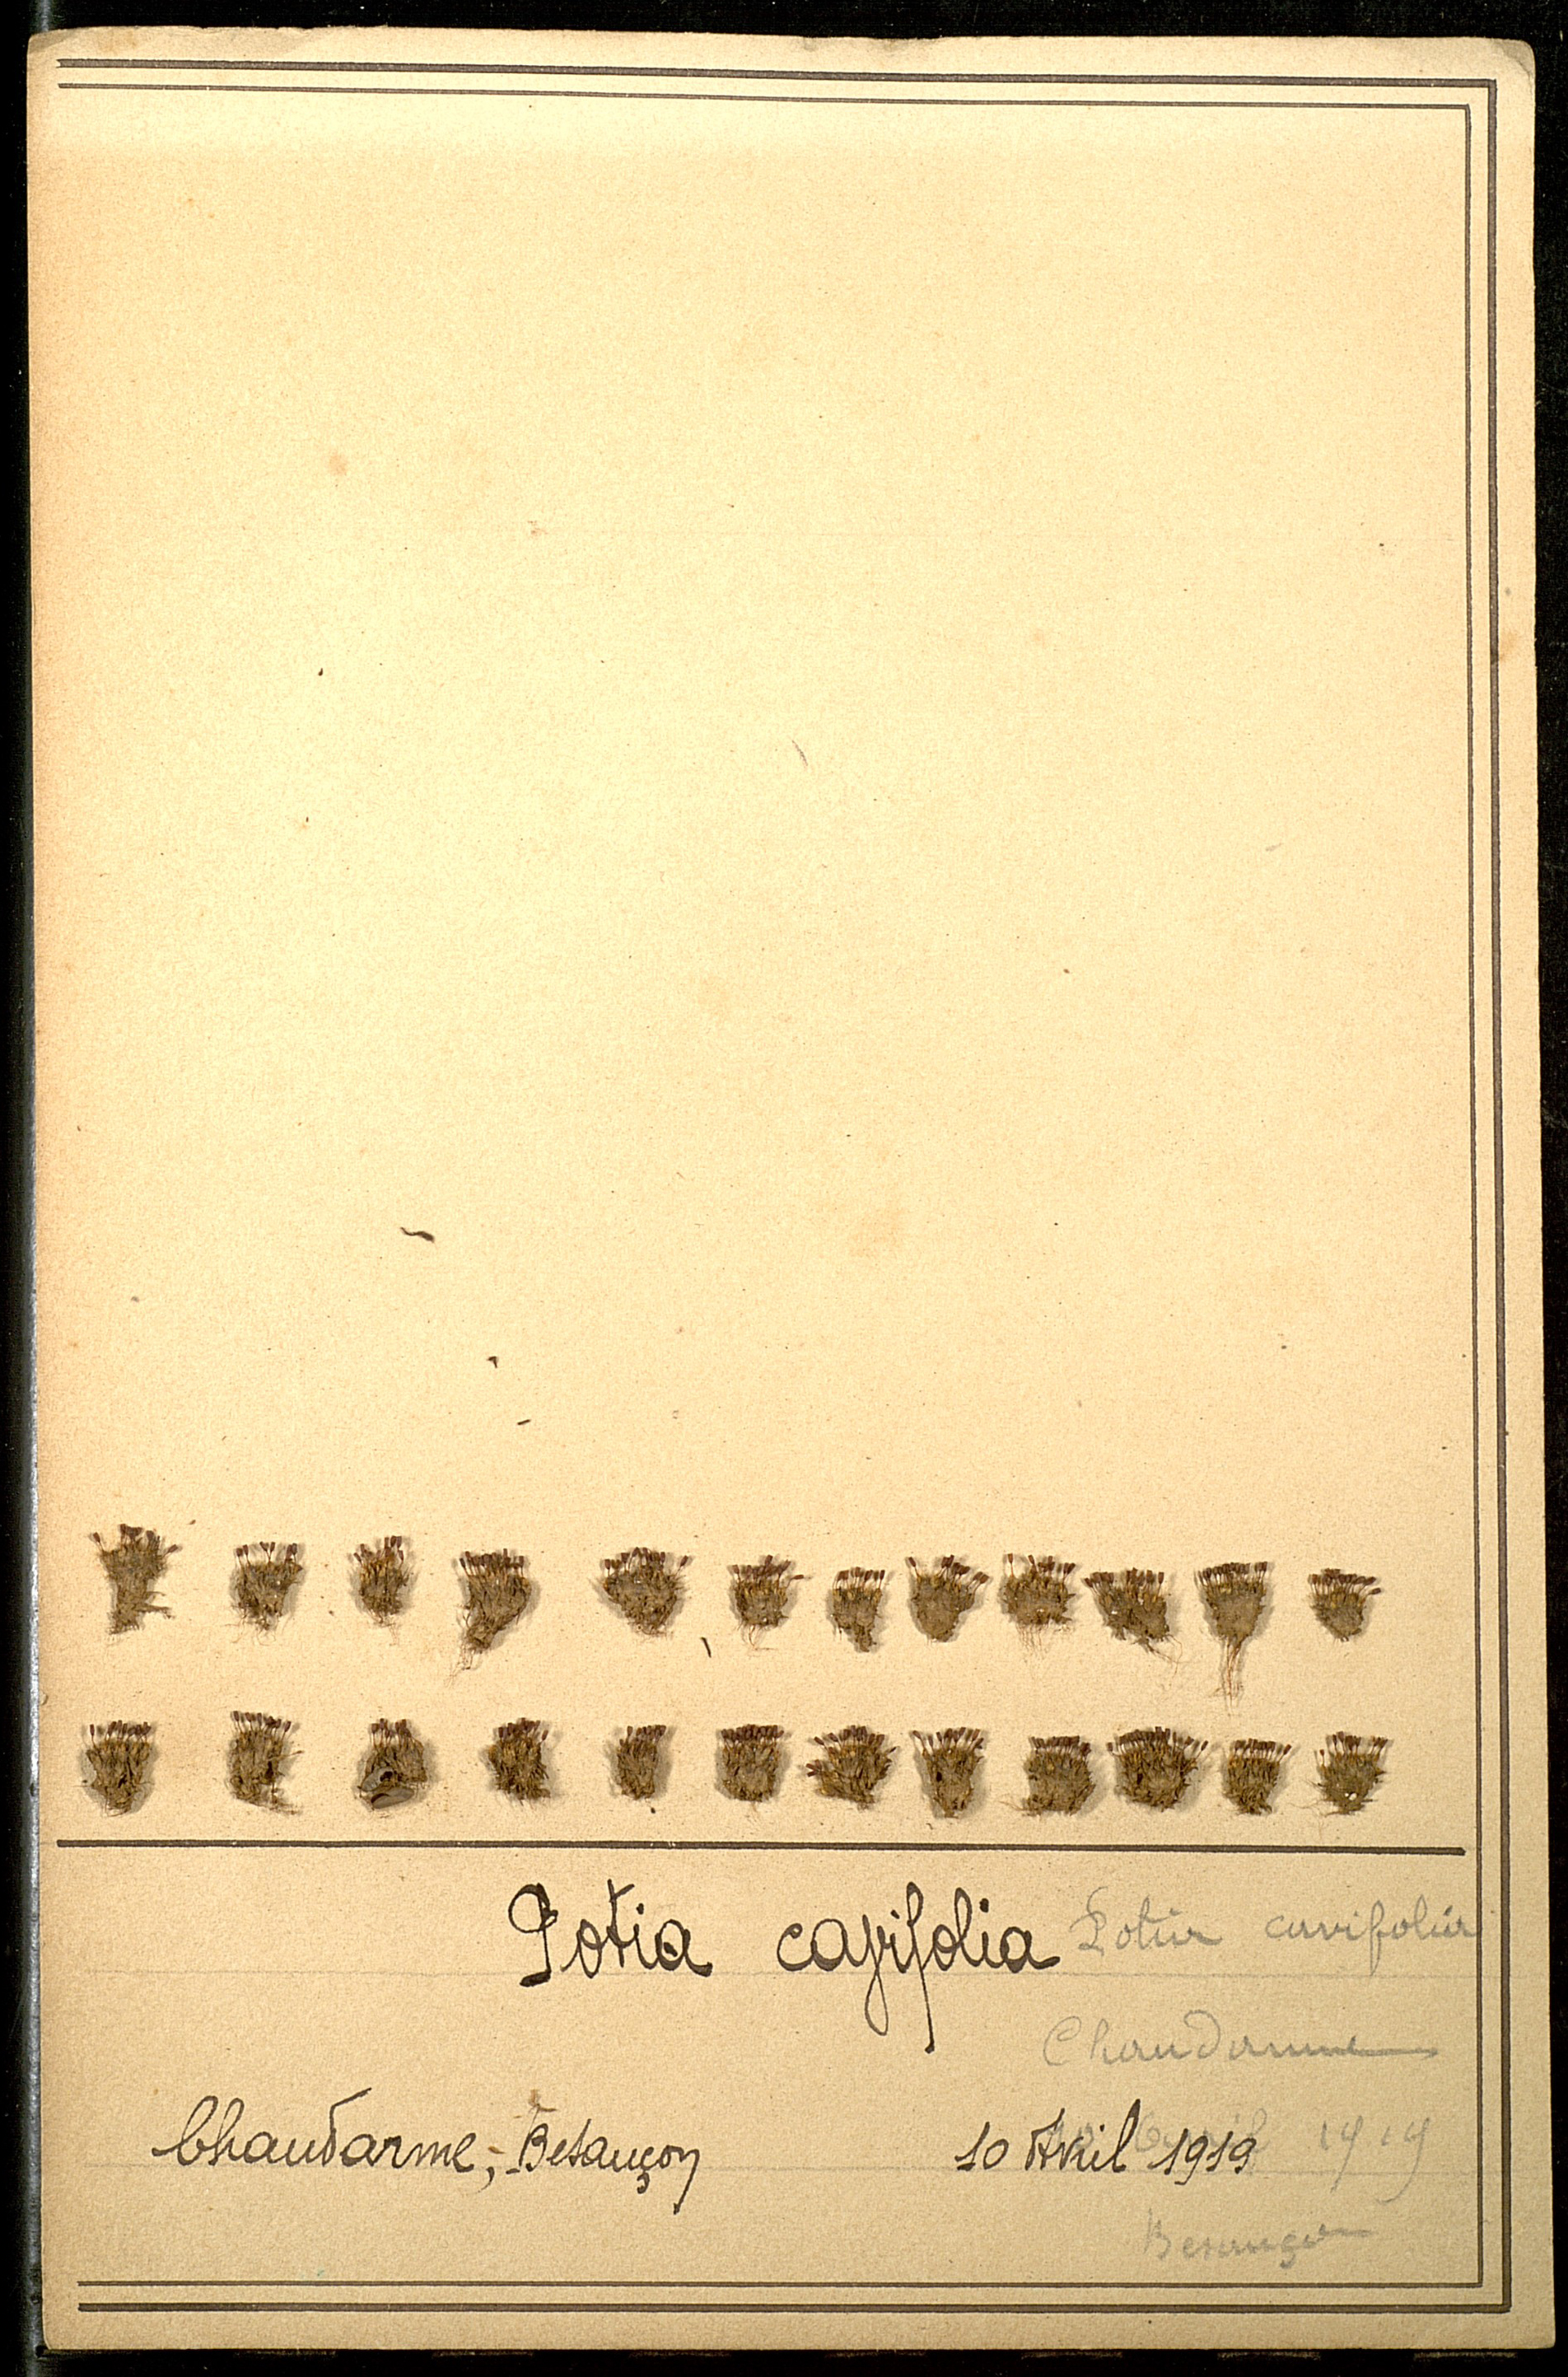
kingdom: Plantae
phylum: Bryophyta
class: Bryopsida
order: Pottiales
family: Pottiaceae
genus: Pterygoneurum
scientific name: Pterygoneurum ovatum
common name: Ovate pterygoneurum
